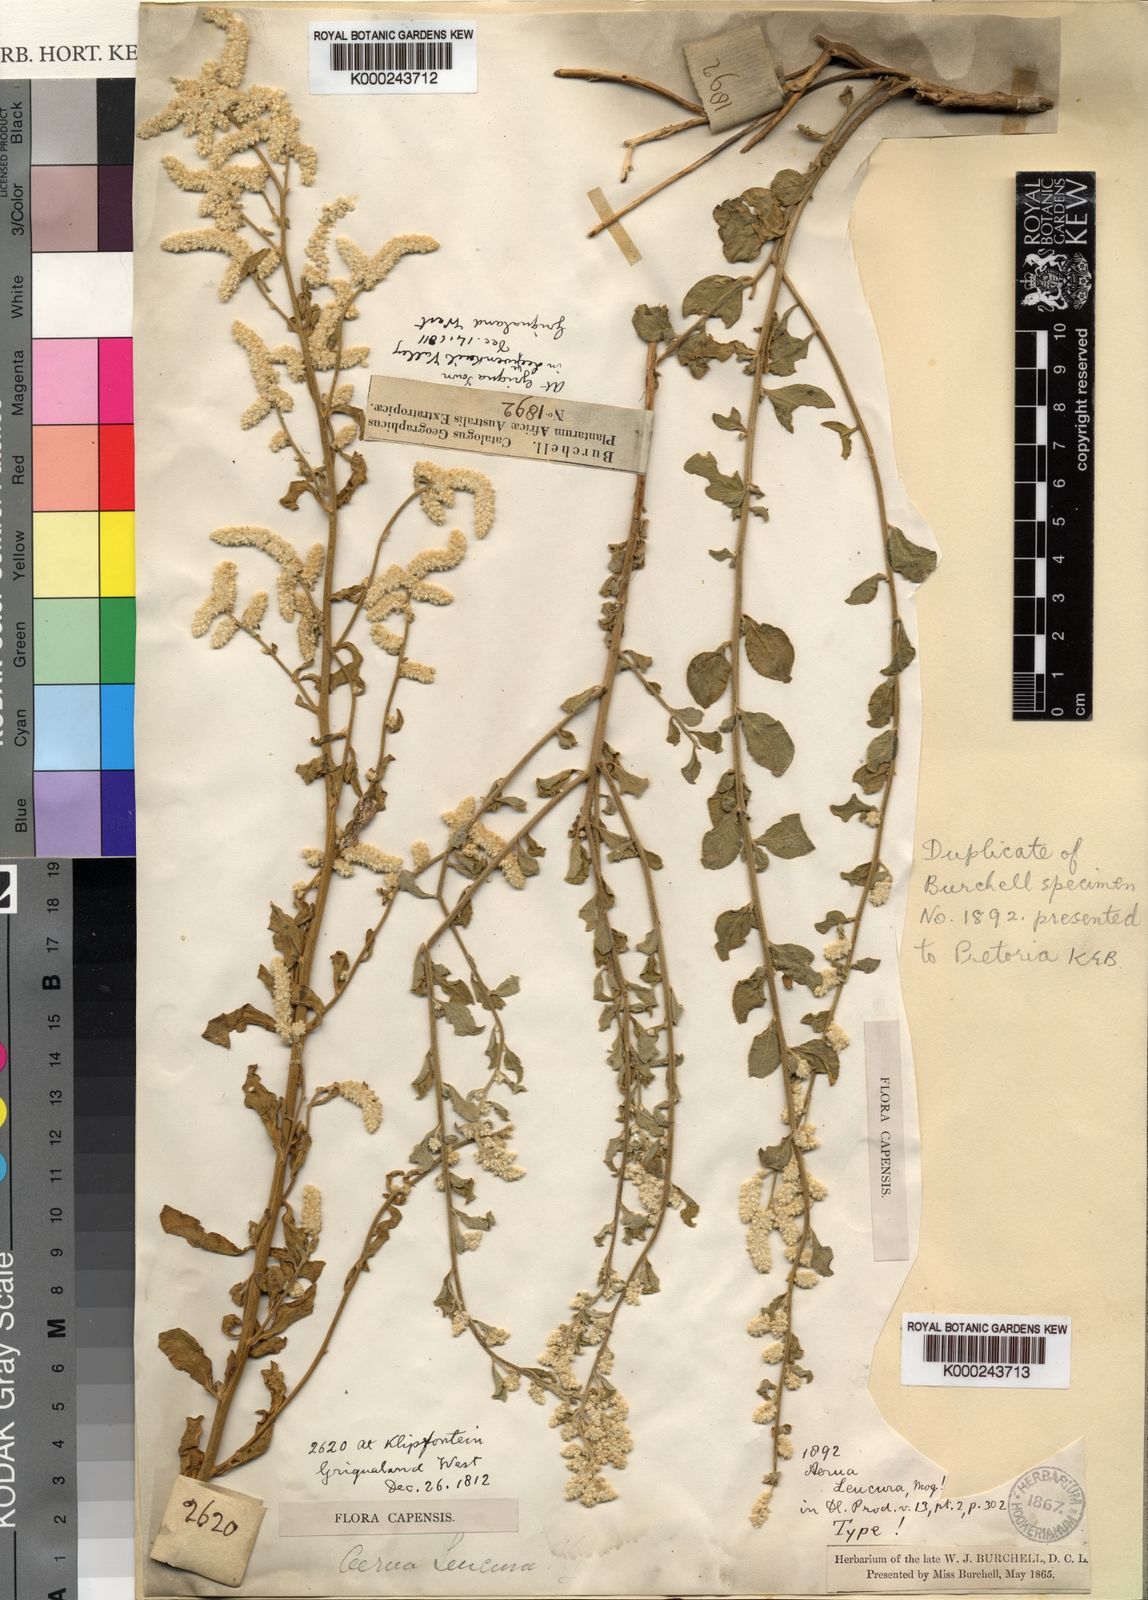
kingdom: Plantae
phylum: Tracheophyta
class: Magnoliopsida
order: Caryophyllales
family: Amaranthaceae
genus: Ouret
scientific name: Ouret leucura
